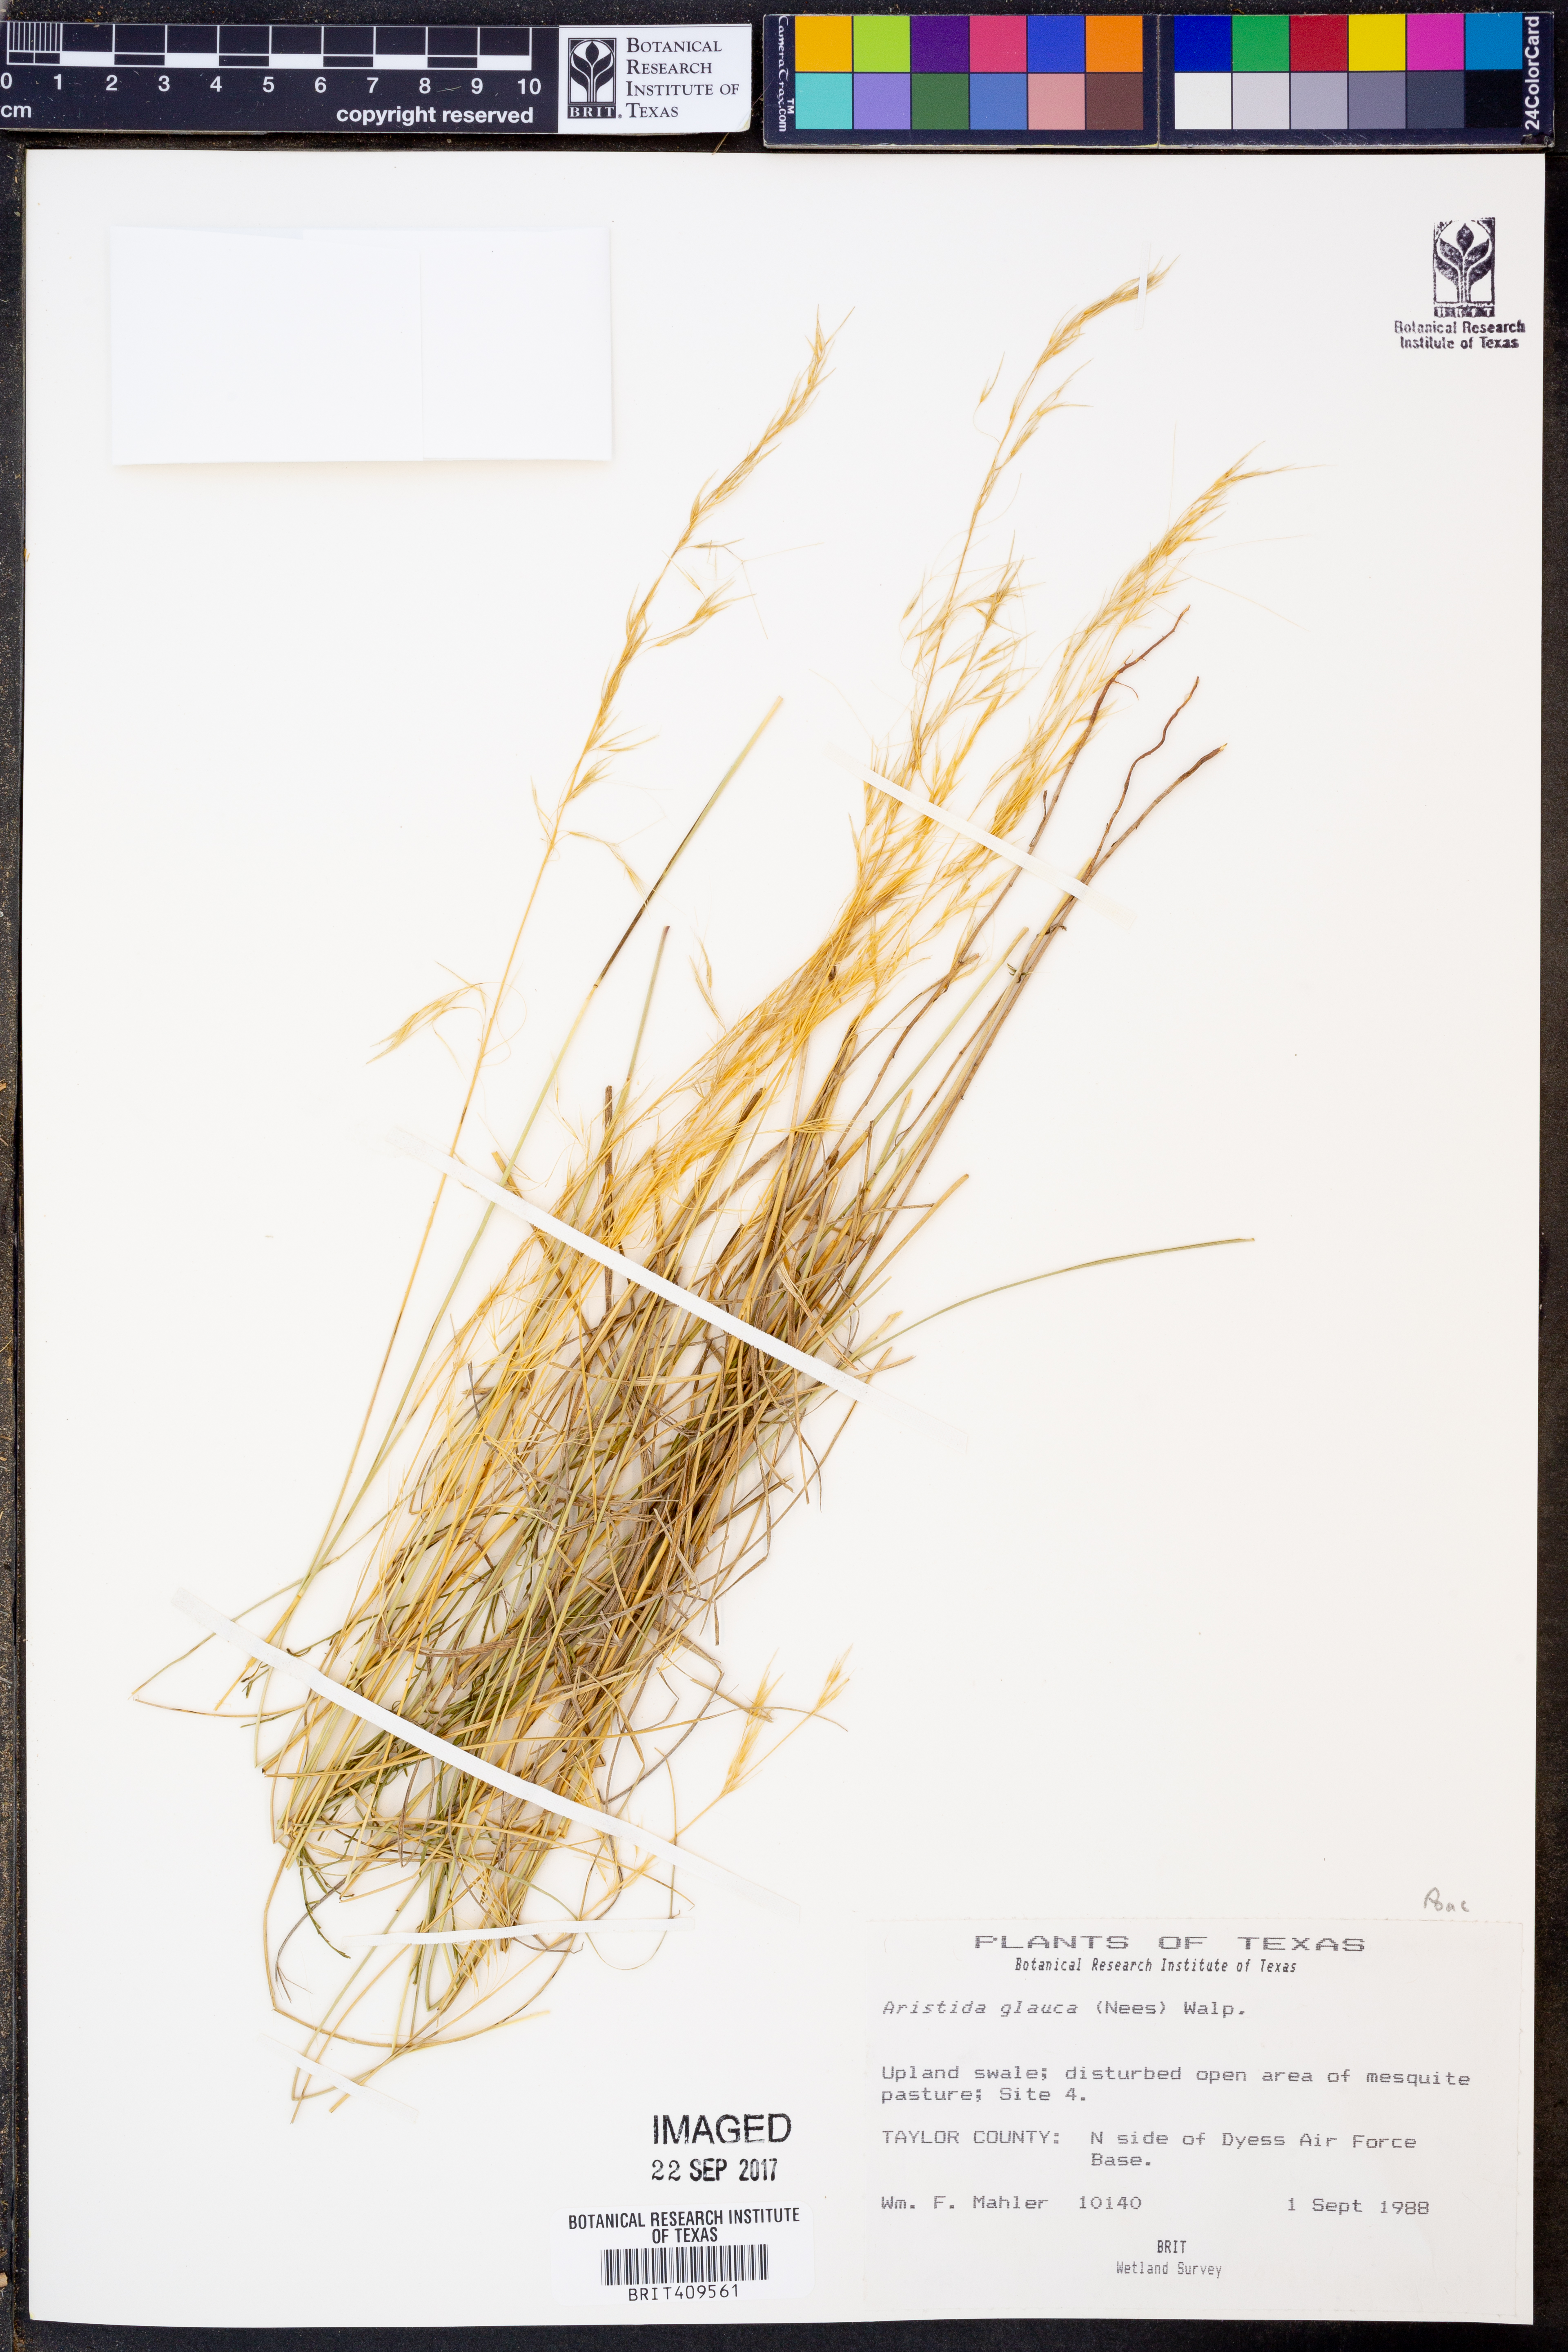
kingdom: Plantae
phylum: Tracheophyta
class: Liliopsida
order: Poales
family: Poaceae
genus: Aristida
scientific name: Aristida glauca
